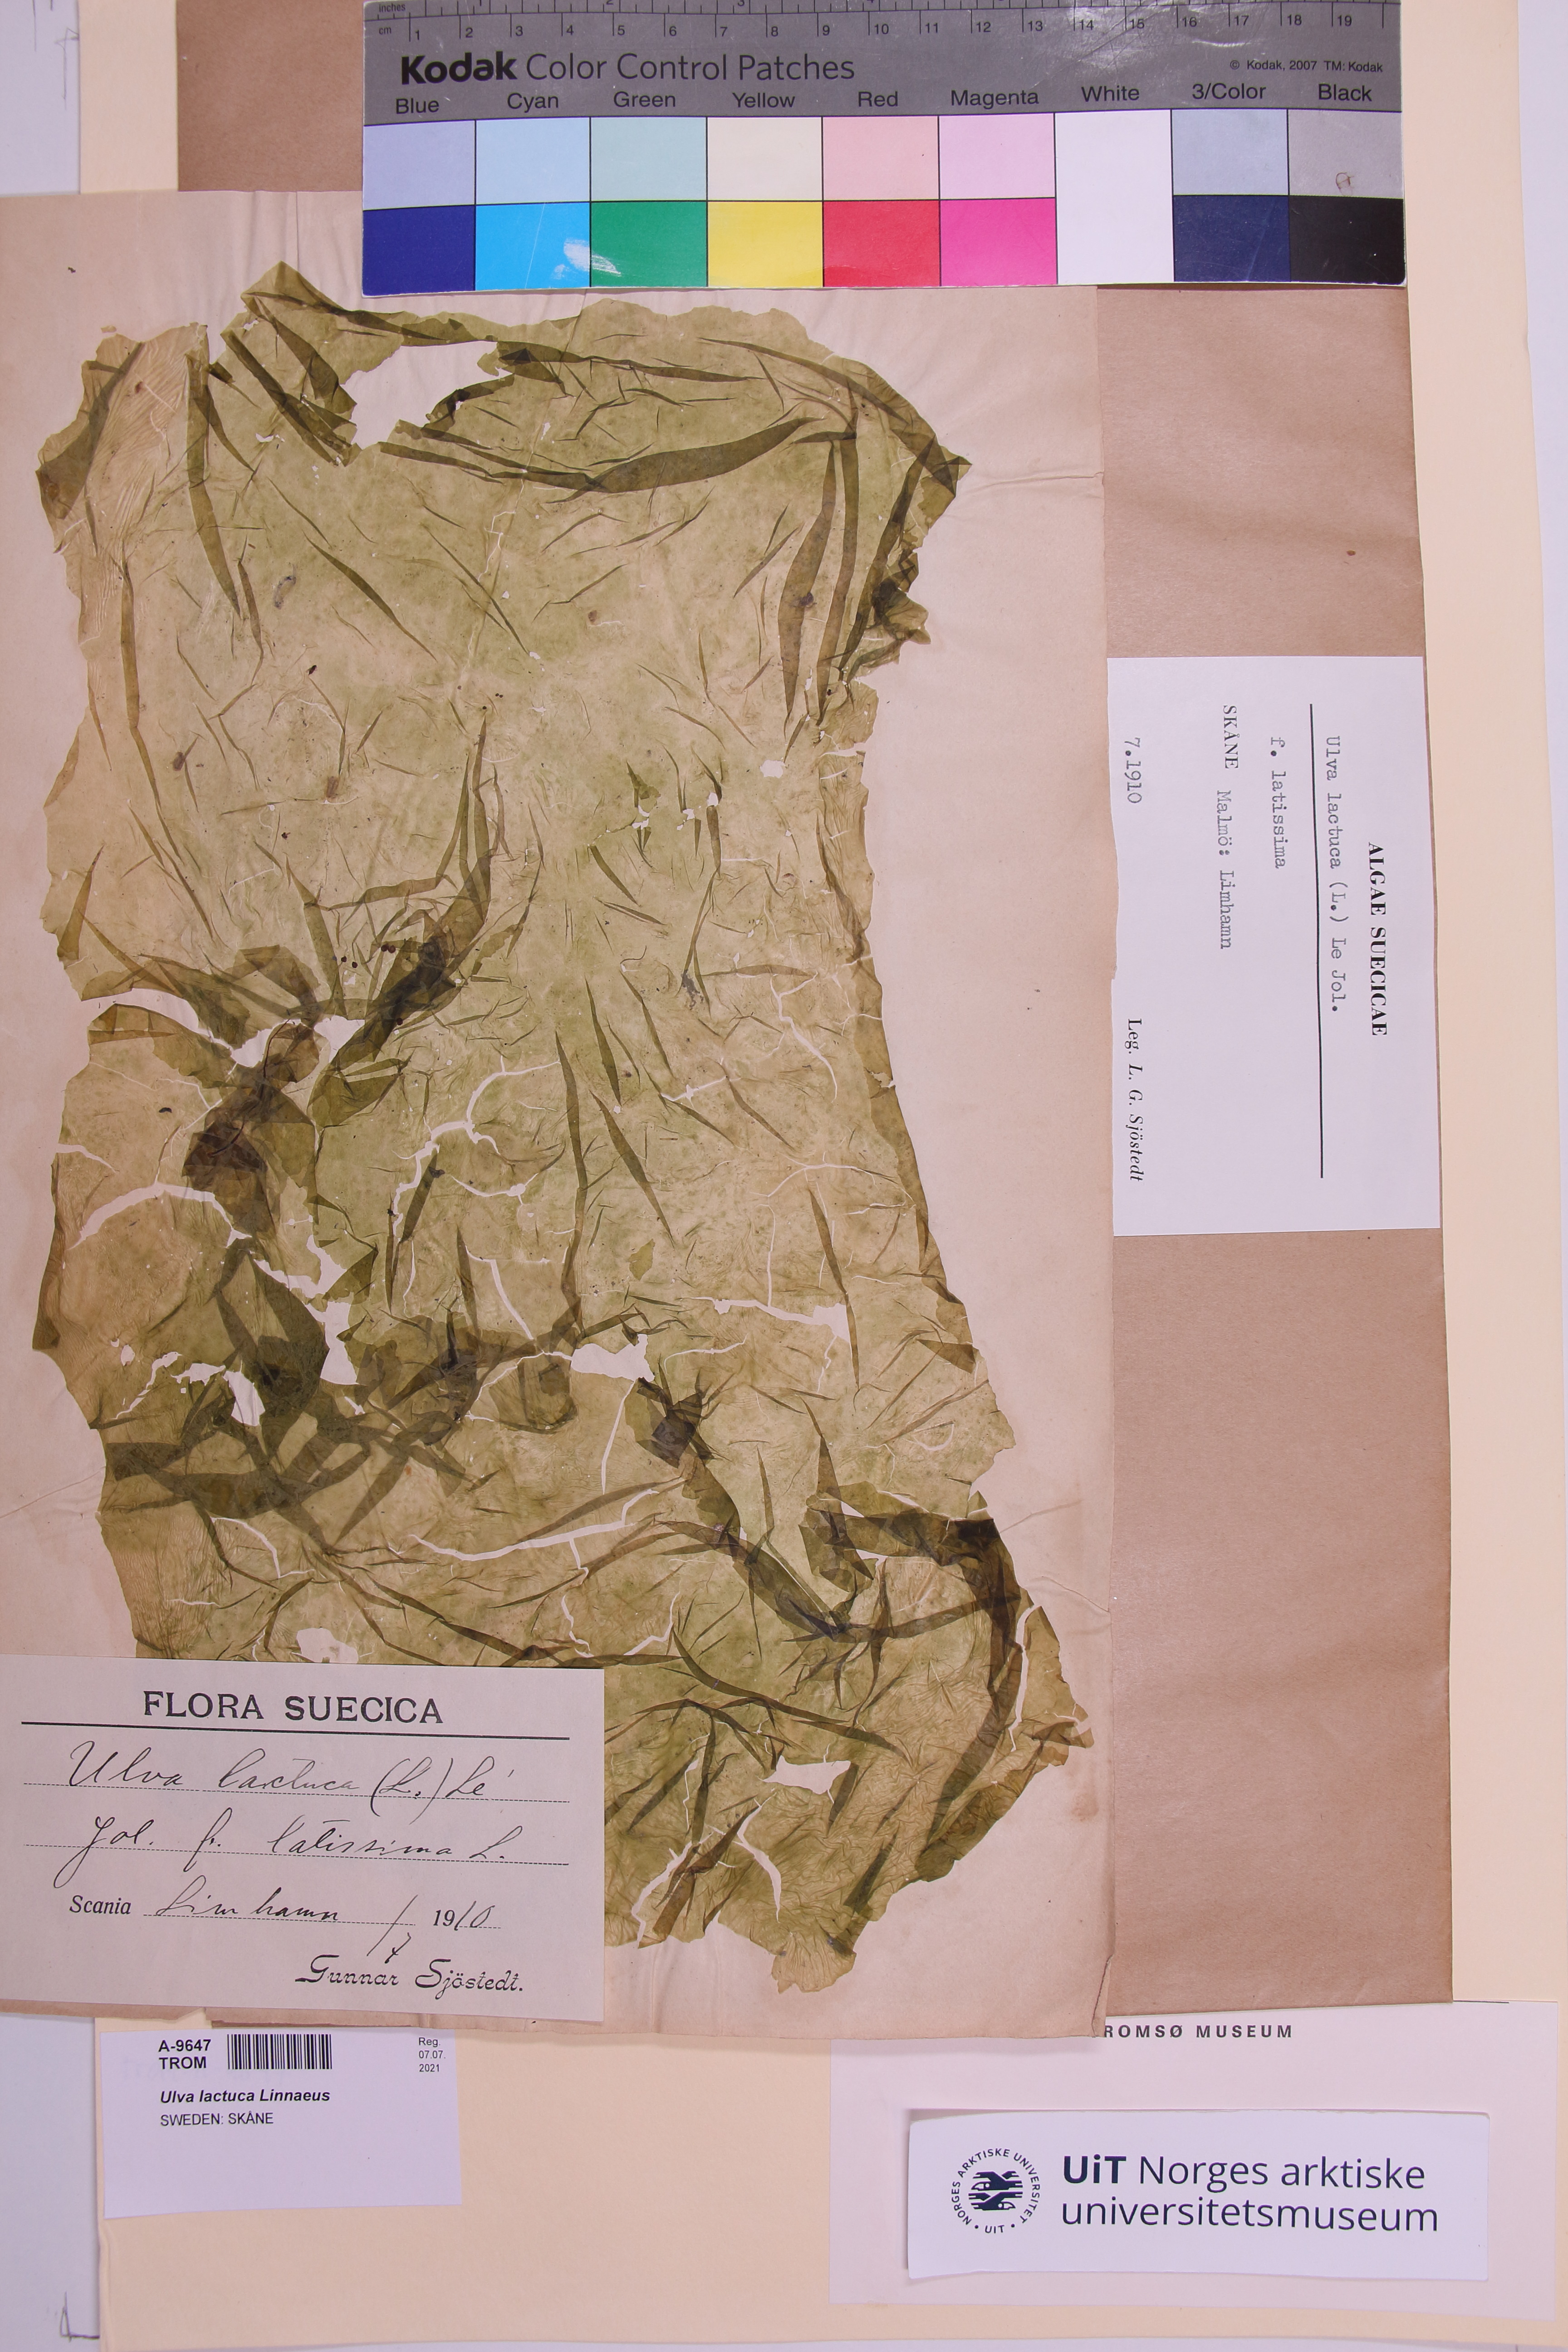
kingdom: Plantae
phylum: Chlorophyta
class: Ulvophyceae
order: Ulvales
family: Ulvaceae
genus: Ulva
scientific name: Ulva lactuca
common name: Sea lettuce
